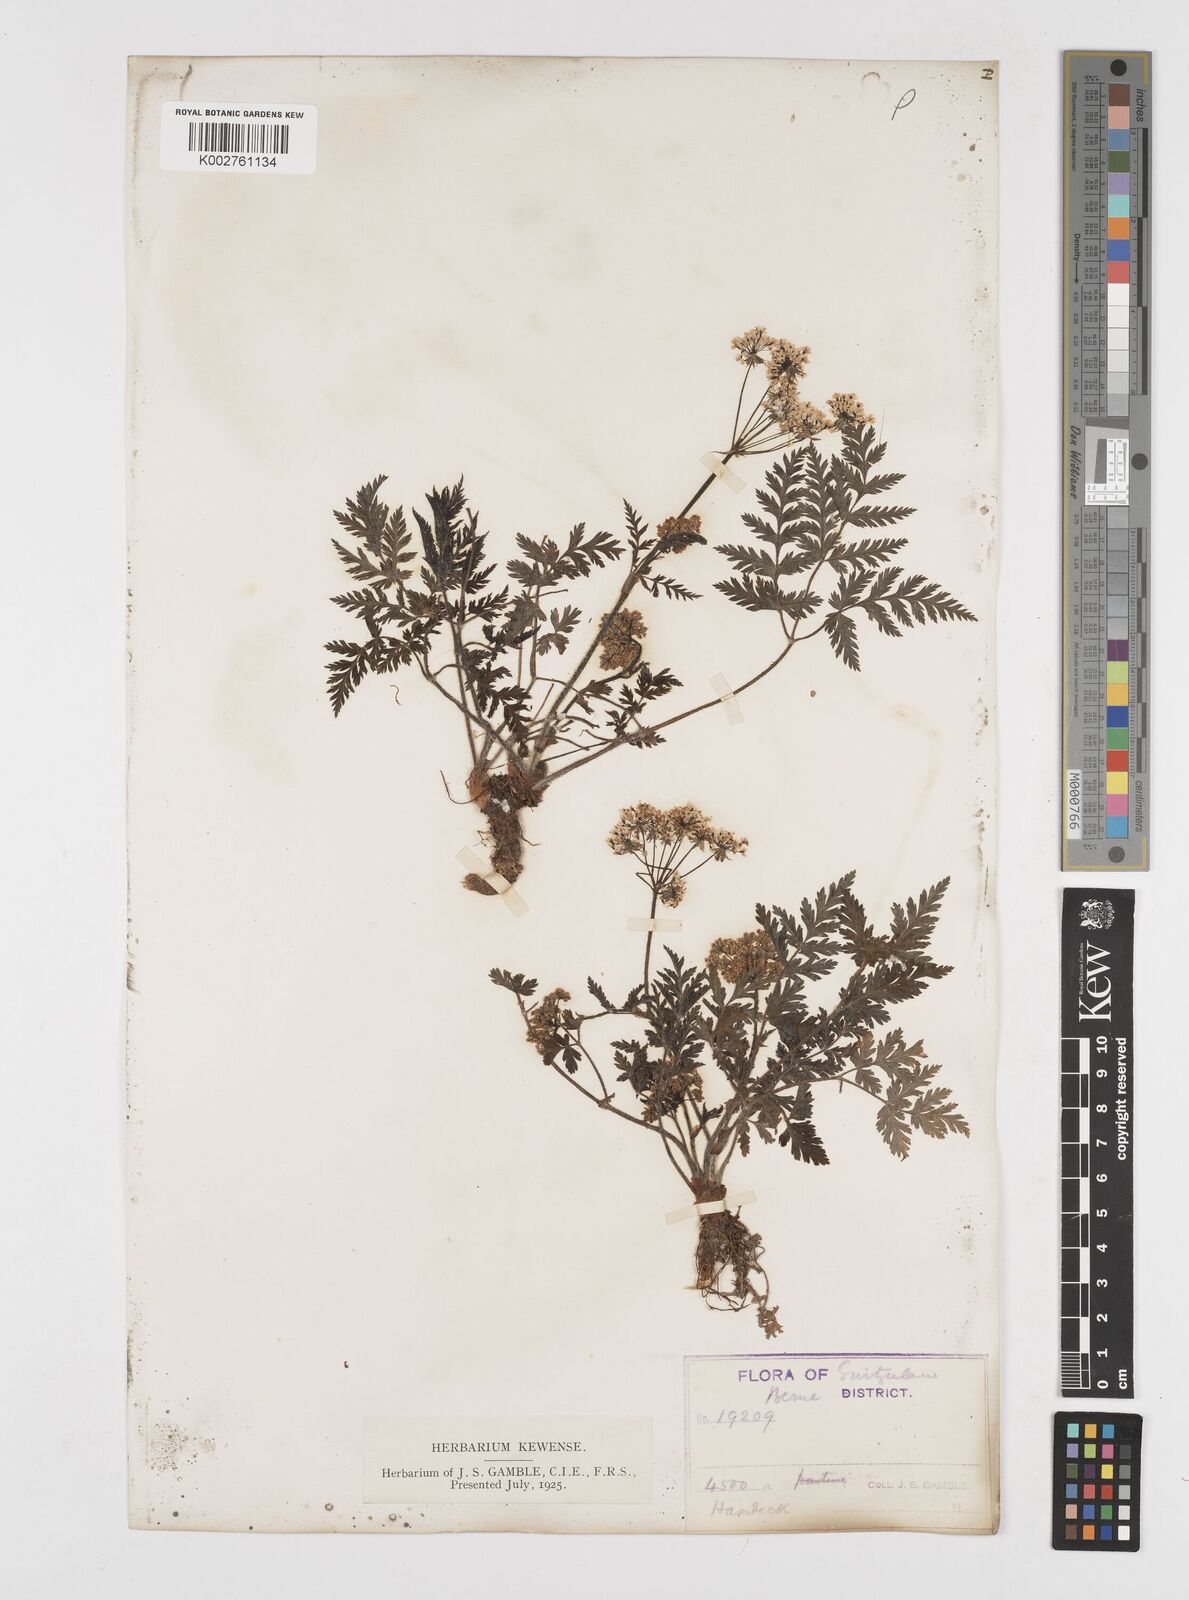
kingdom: Plantae
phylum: Tracheophyta
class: Magnoliopsida
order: Apiales
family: Apiaceae
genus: Chaerophyllum
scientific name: Chaerophyllum hirsutum
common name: Hairy chervil
